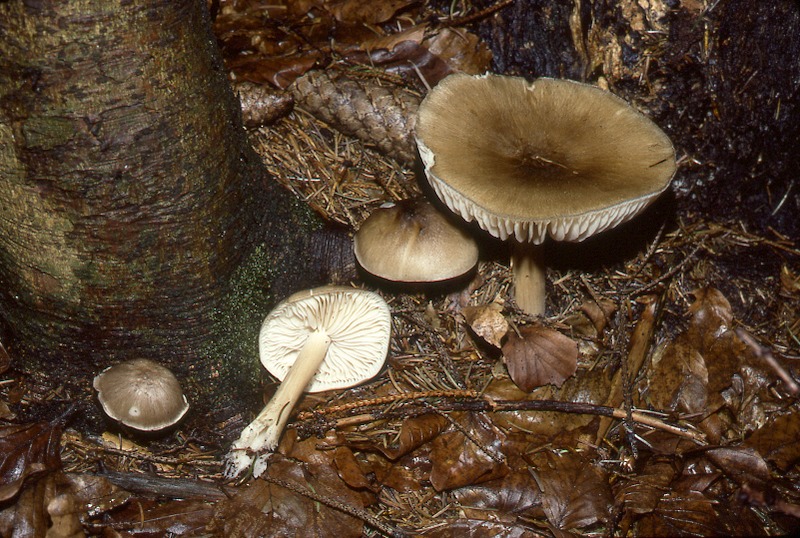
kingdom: Fungi
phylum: Basidiomycota
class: Agaricomycetes
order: Agaricales
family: Tricholomataceae
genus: Megacollybia
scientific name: Megacollybia platyphylla
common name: Whitelaced shank
